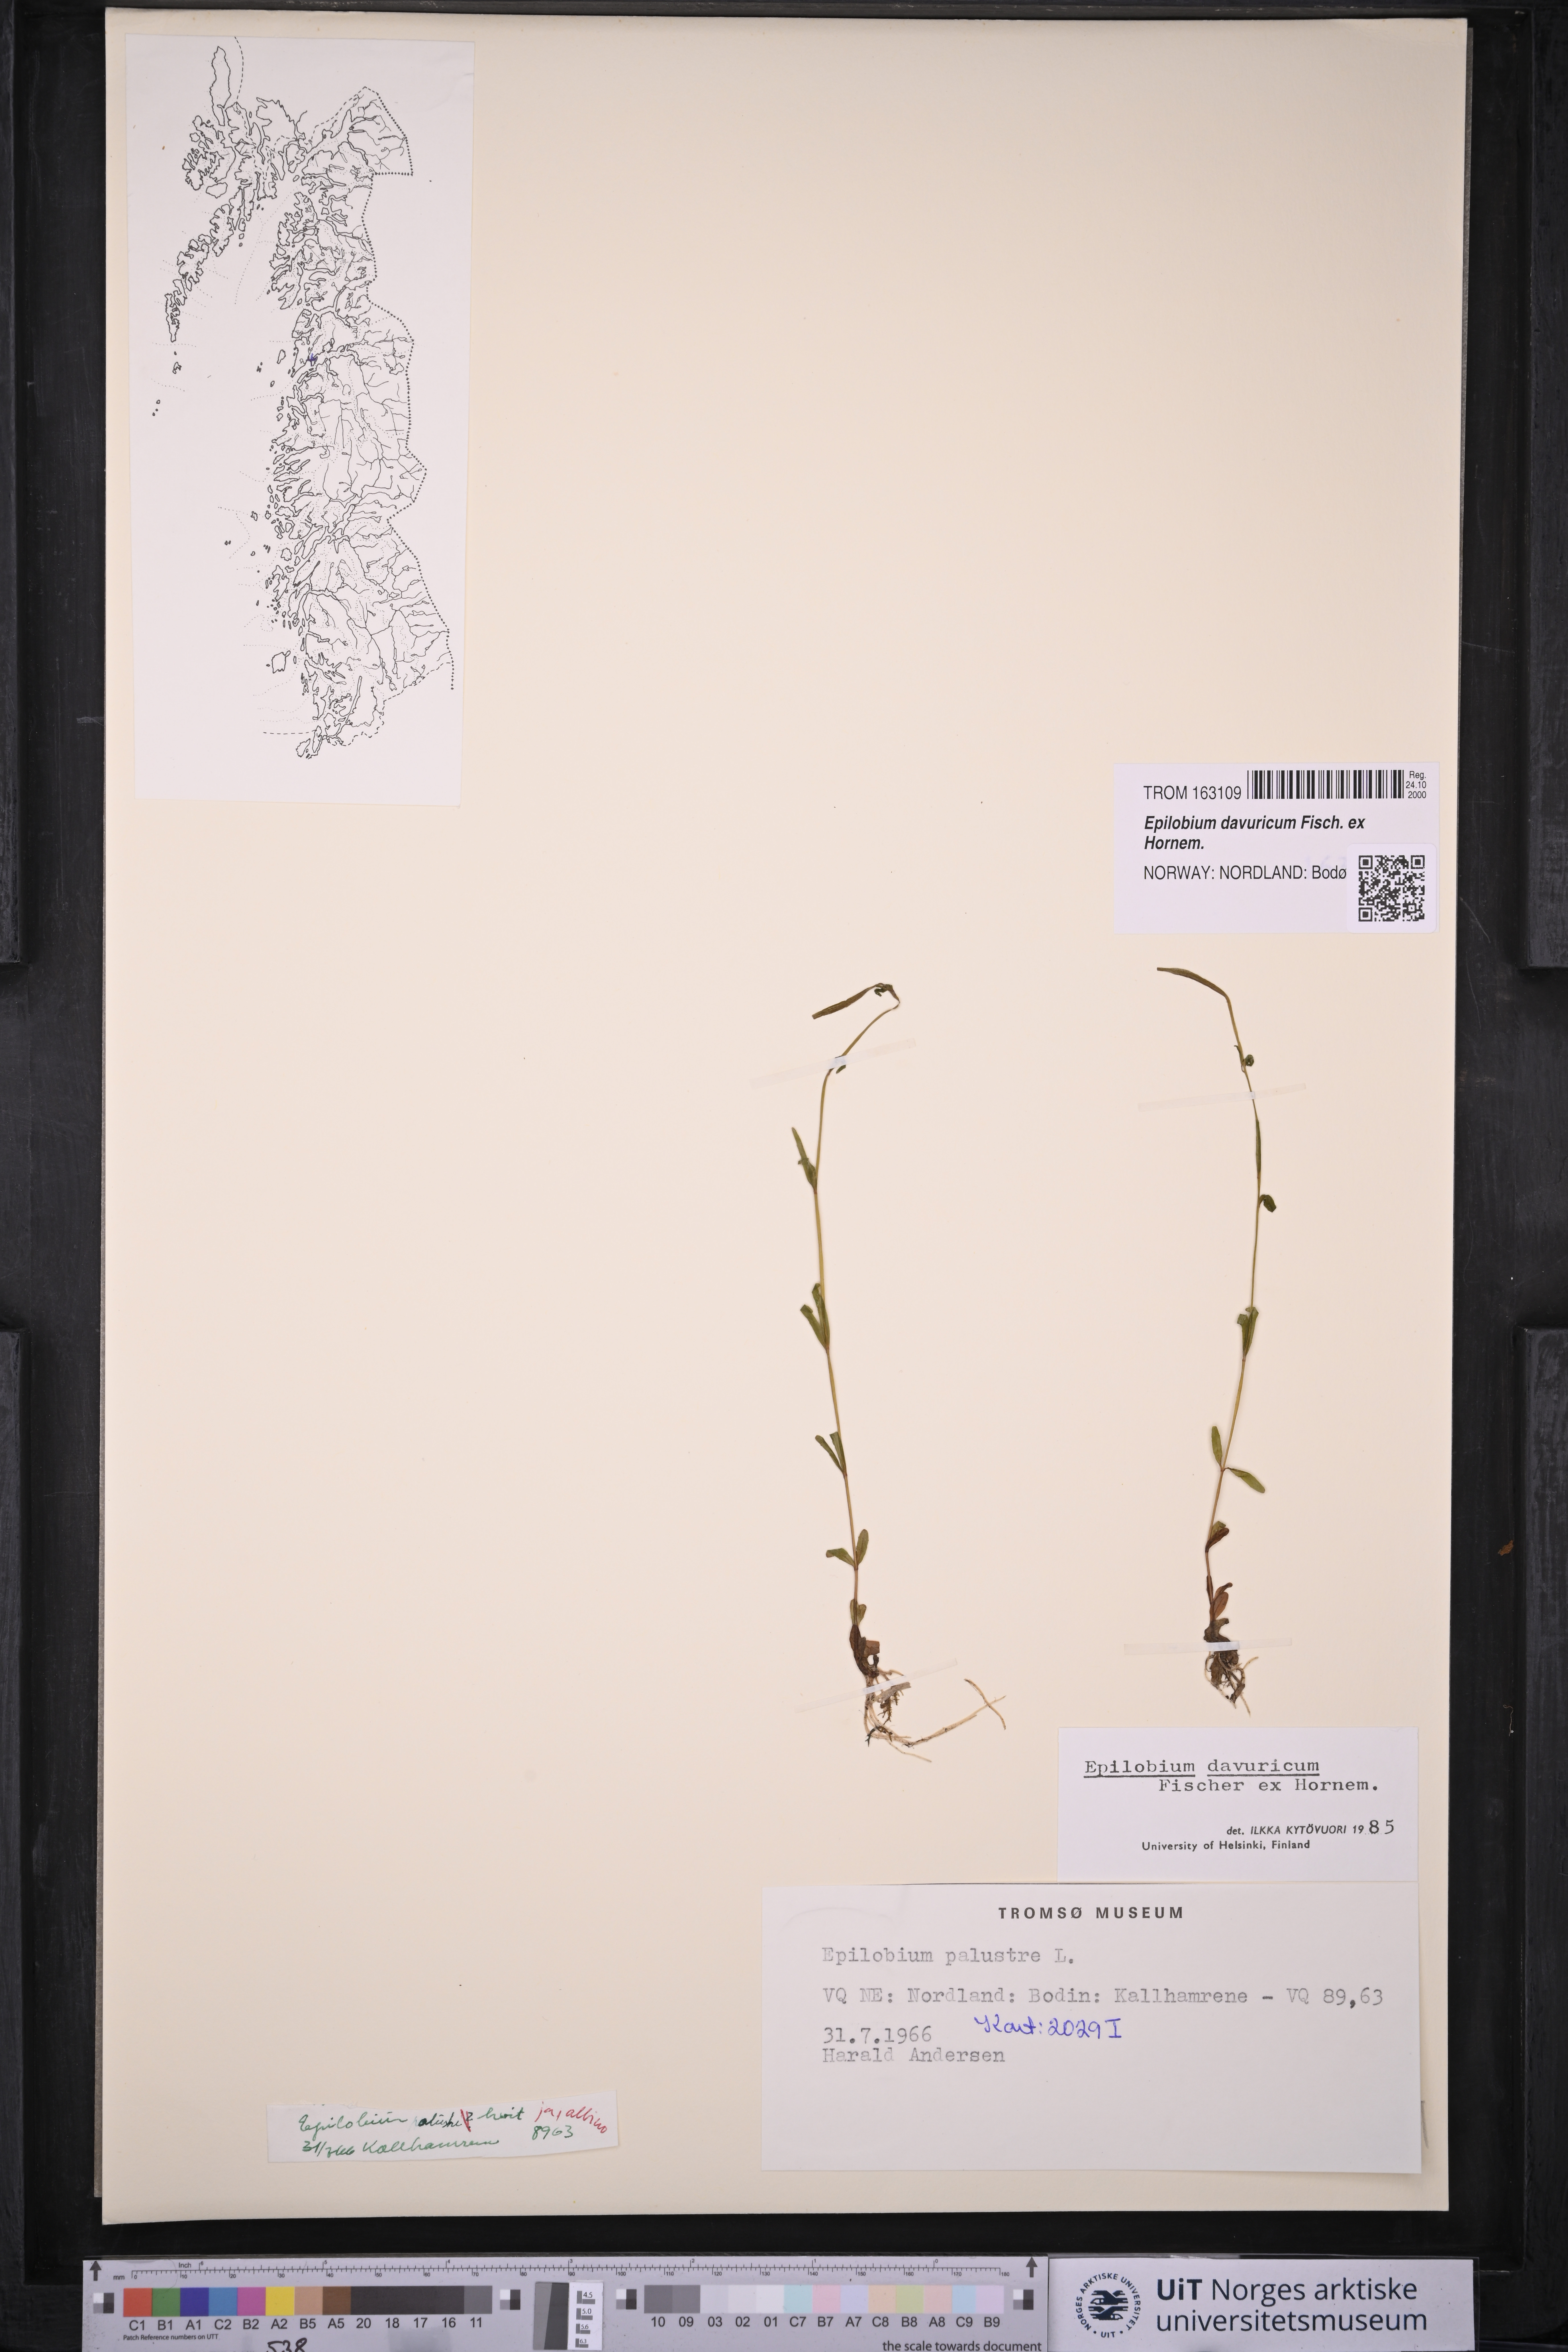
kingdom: Plantae
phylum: Tracheophyta
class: Magnoliopsida
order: Myrtales
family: Onagraceae
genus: Epilobium
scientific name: Epilobium davuricum
